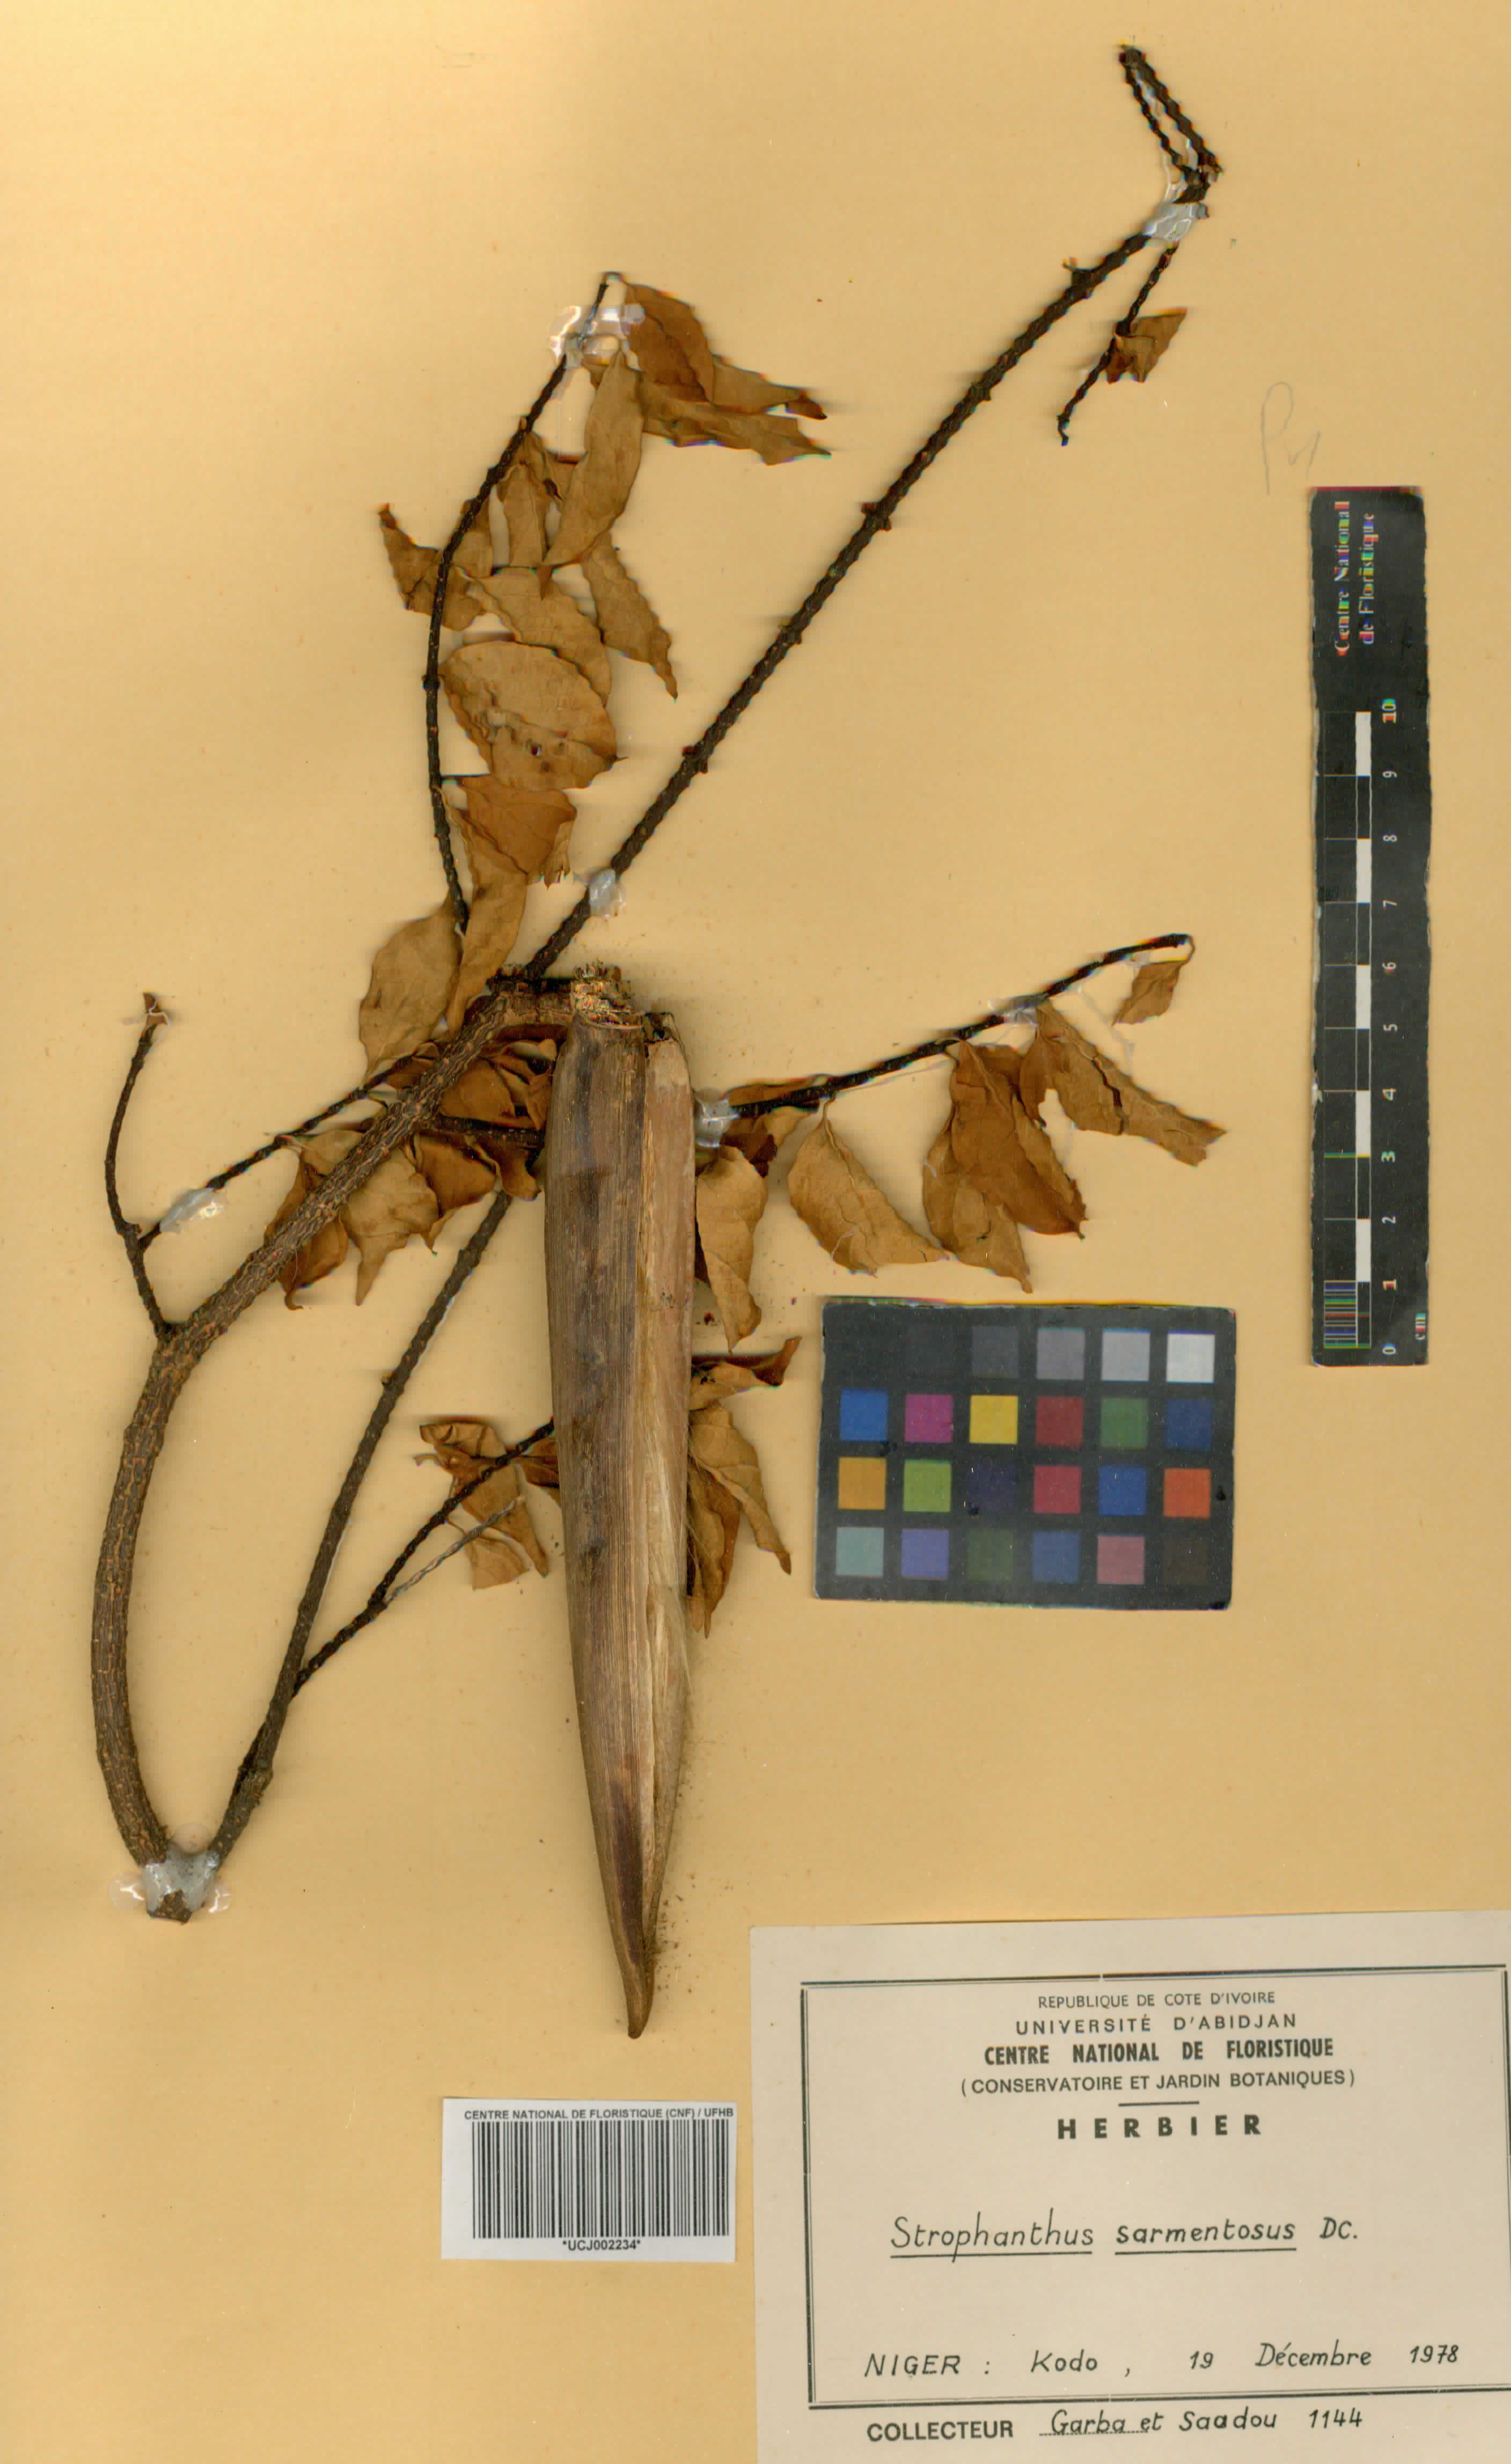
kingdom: Plantae
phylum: Tracheophyta
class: Magnoliopsida
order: Gentianales
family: Apocynaceae
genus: Strophanthus
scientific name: Strophanthus sarmentosus
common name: Poison arrowvine
